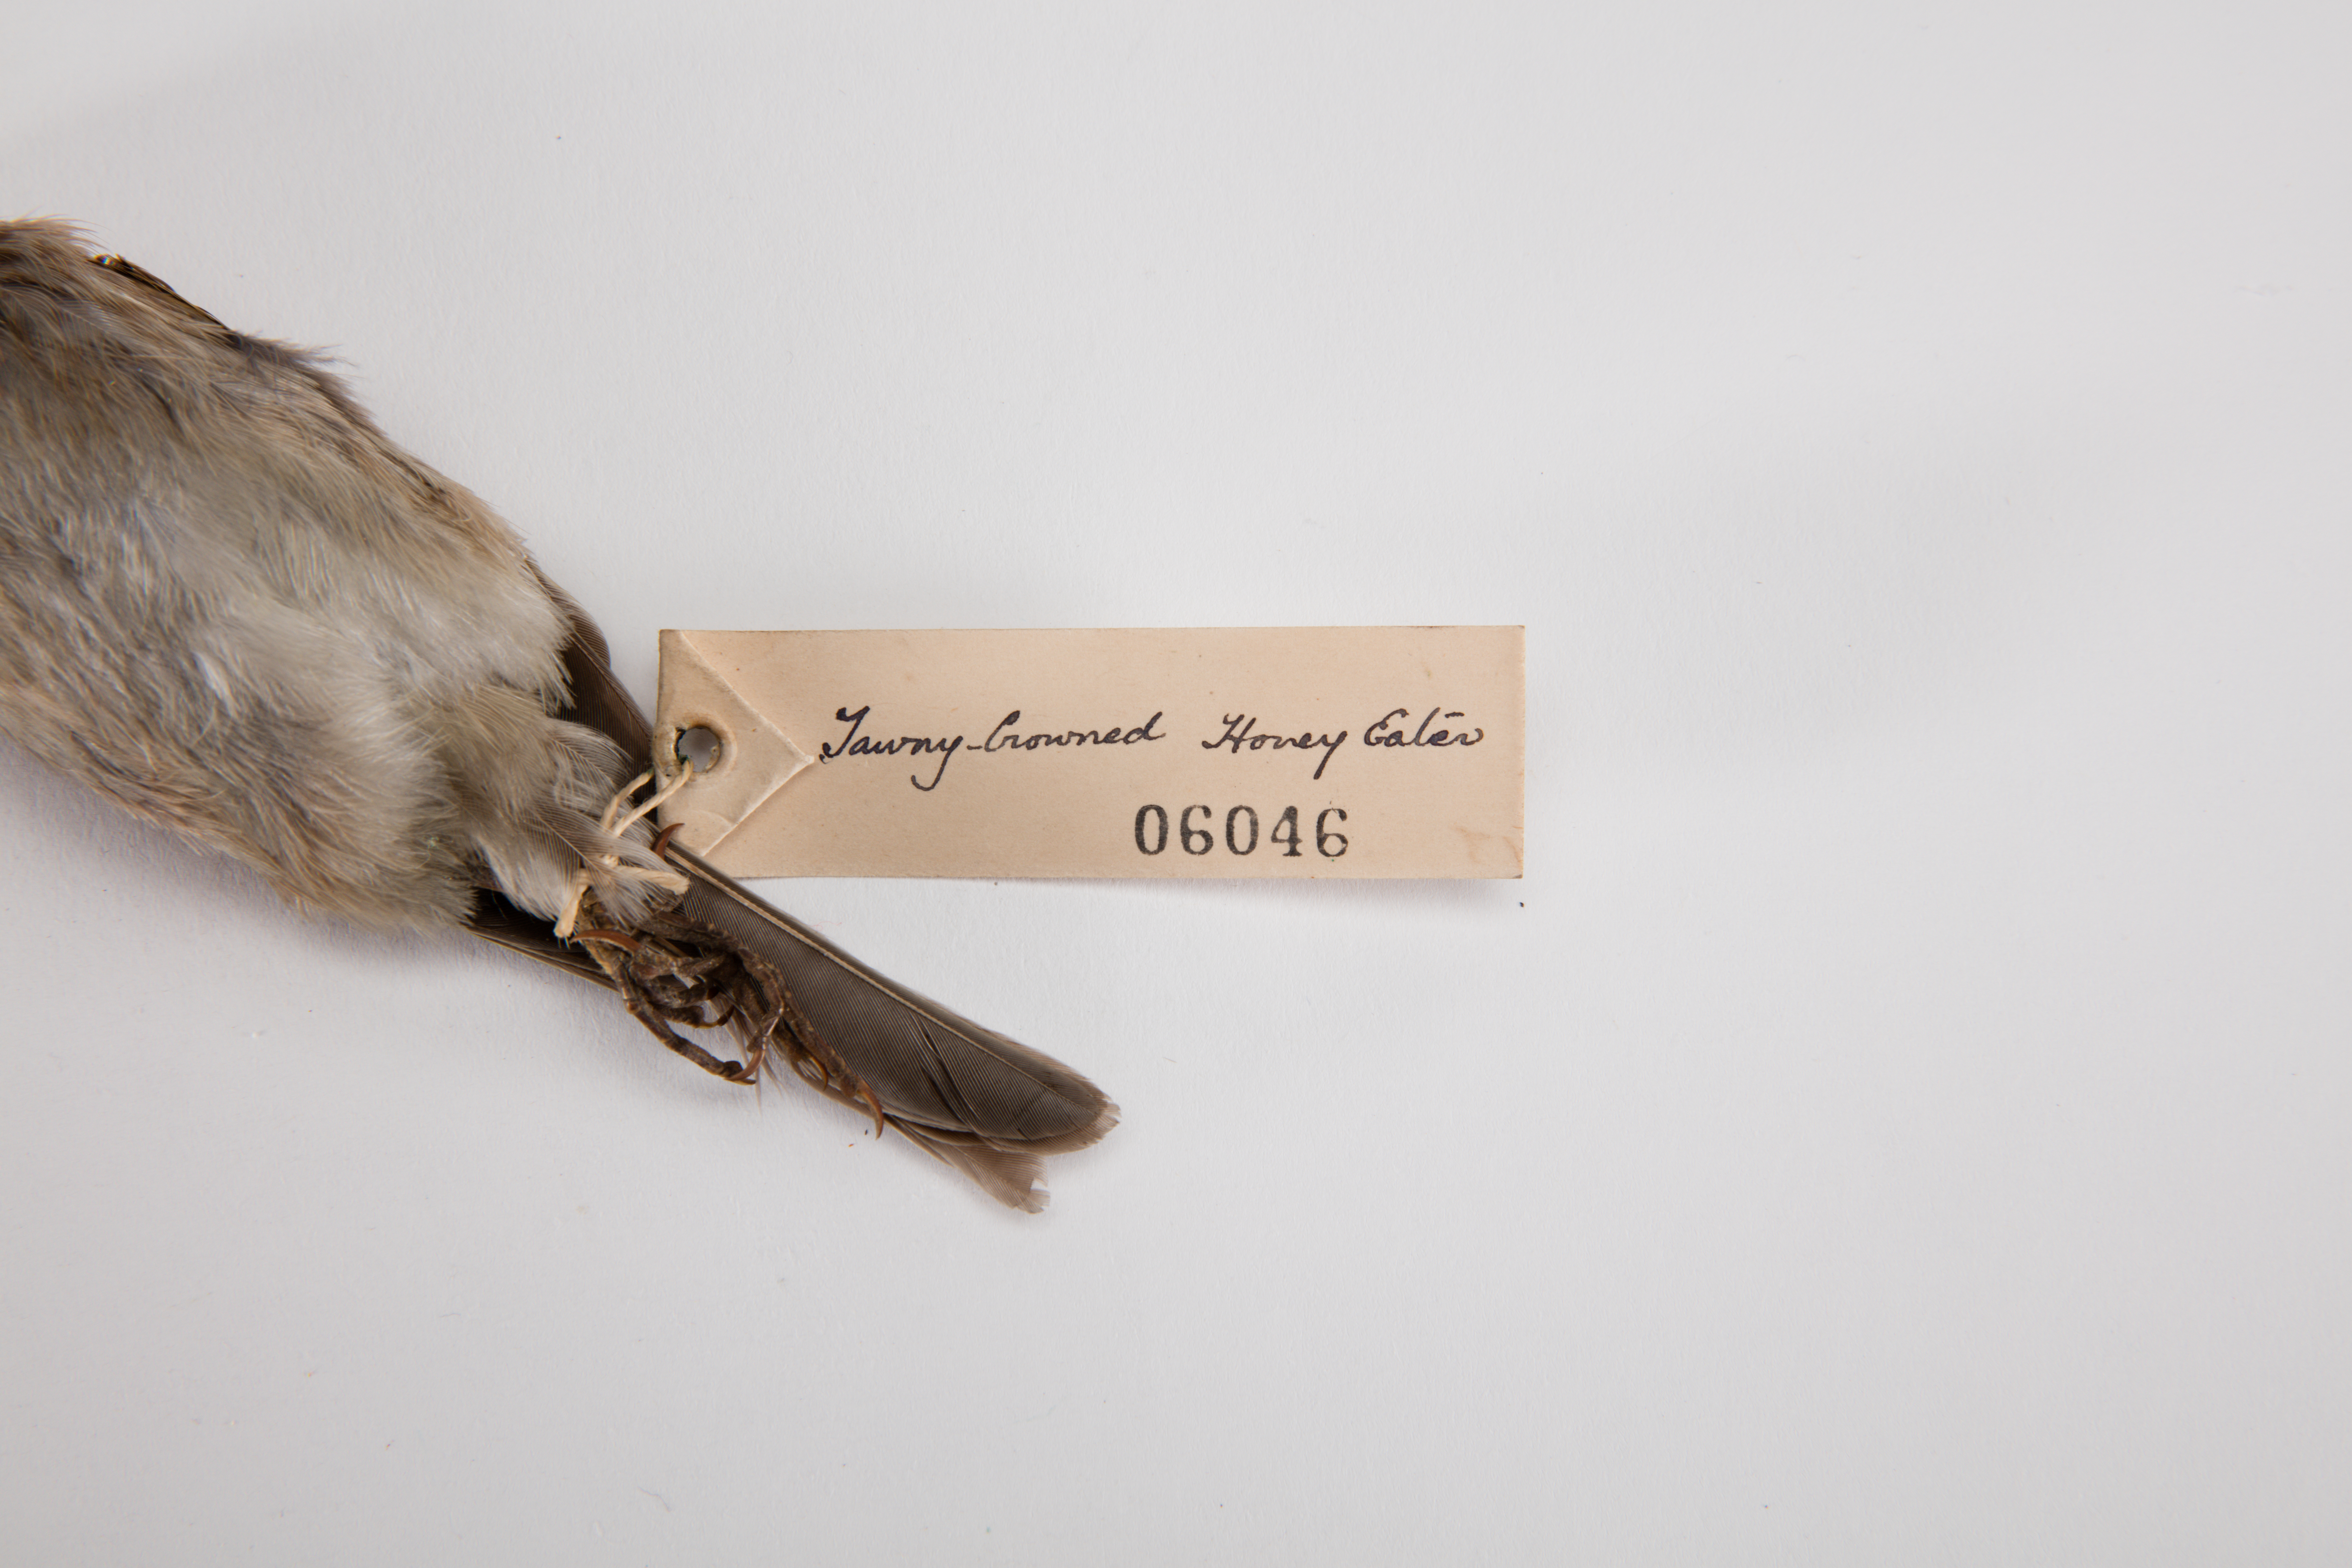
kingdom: Animalia
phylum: Chordata
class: Aves
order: Passeriformes
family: Meliphagidae
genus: Gliciphila
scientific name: Gliciphila
